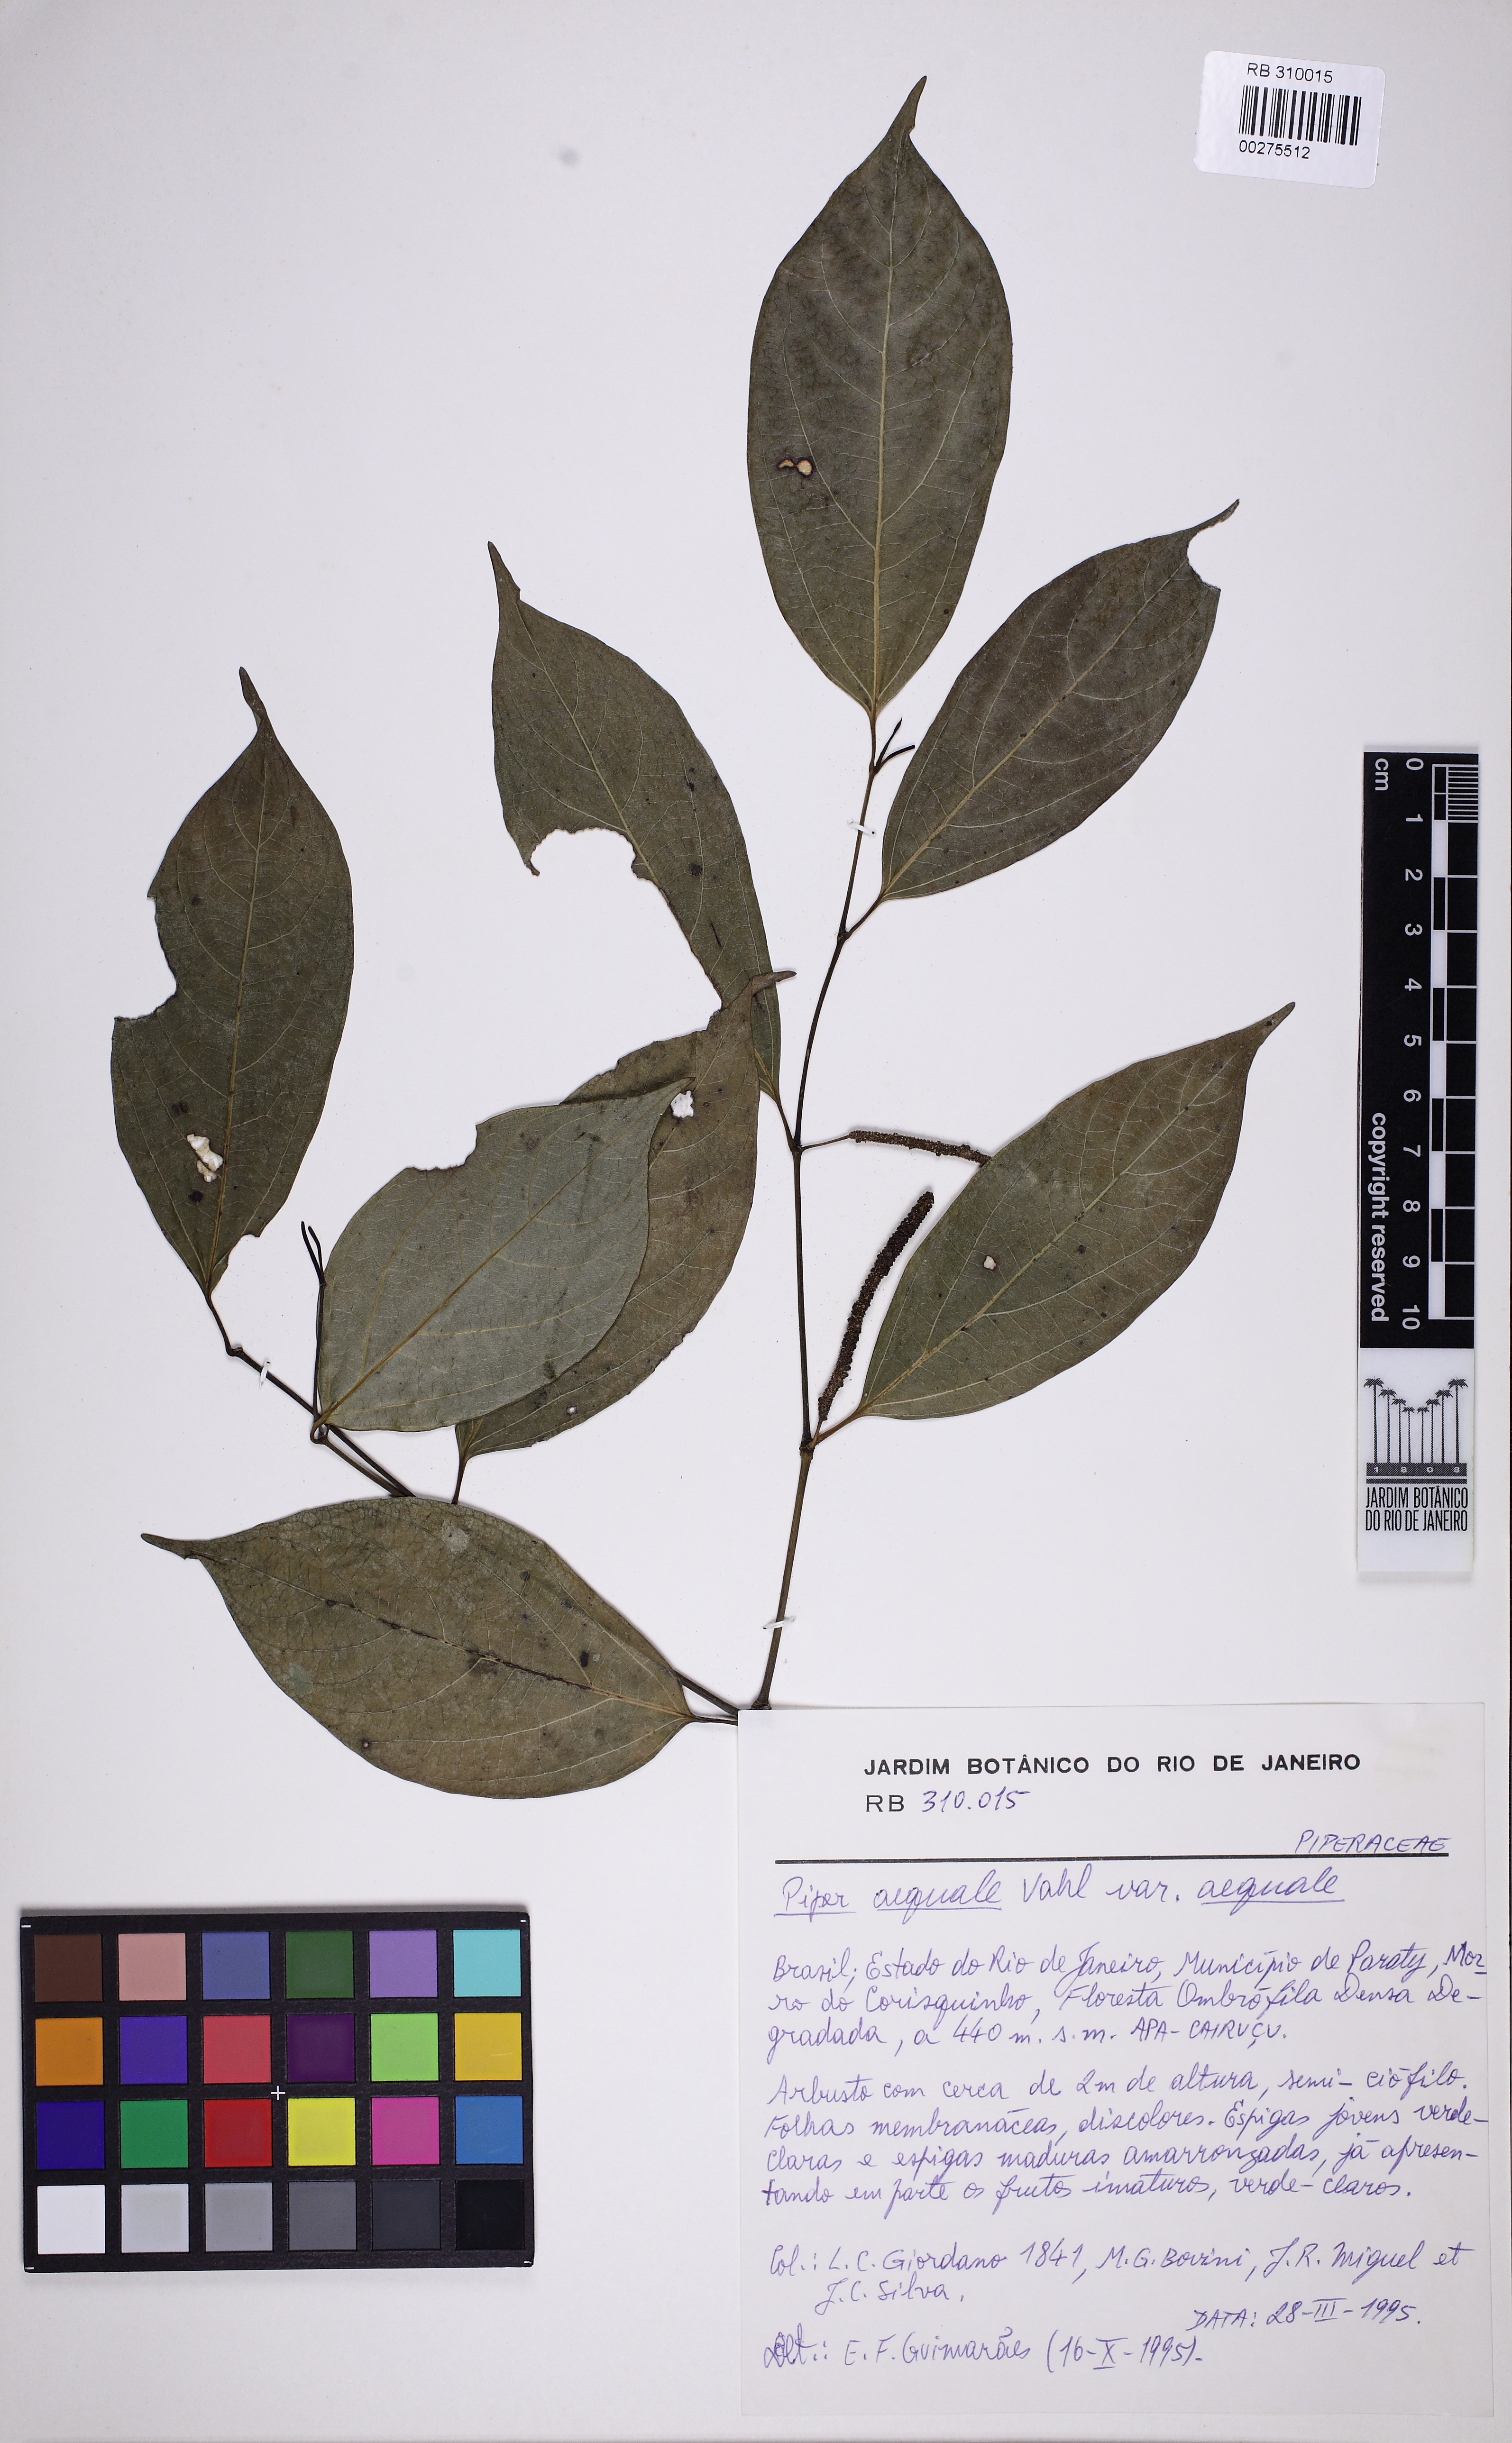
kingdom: Plantae
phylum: Tracheophyta
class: Magnoliopsida
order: Piperales
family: Piperaceae
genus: Piper
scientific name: Piper aequale
